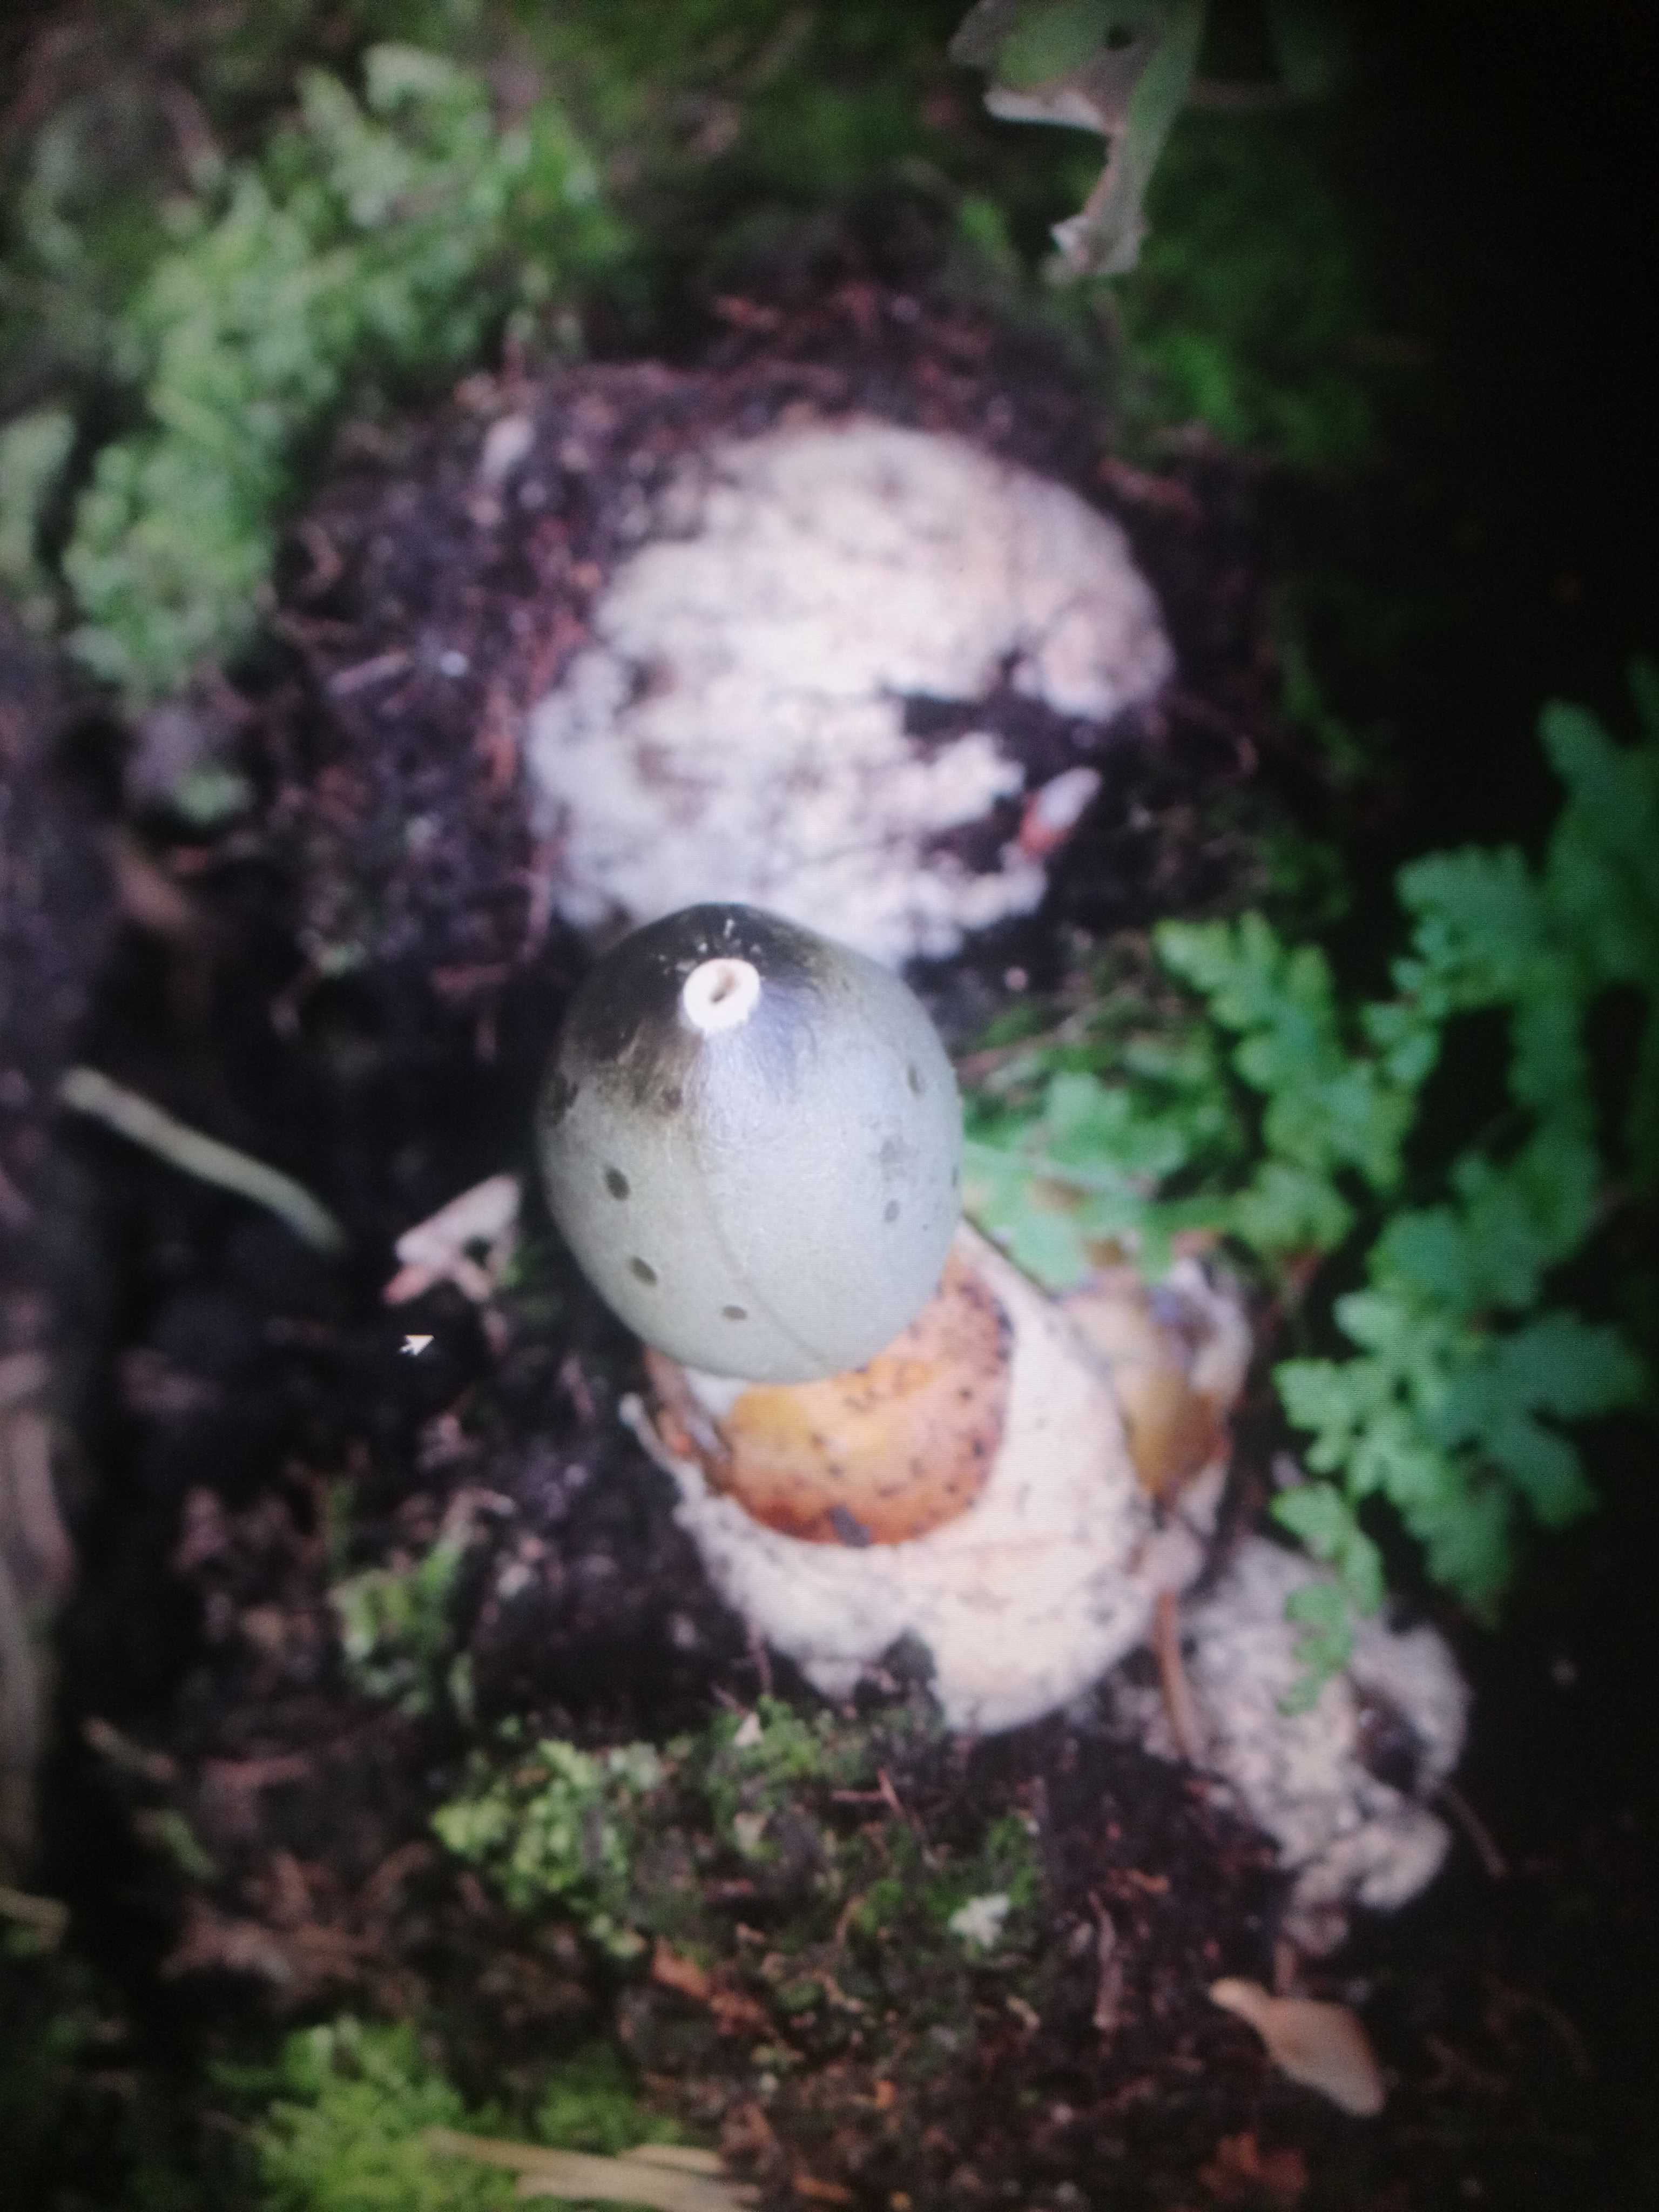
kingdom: Fungi
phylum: Basidiomycota
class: Agaricomycetes
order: Phallales
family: Phallaceae
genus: Phallus
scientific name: Phallus impudicus
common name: almindelig stinksvamp
